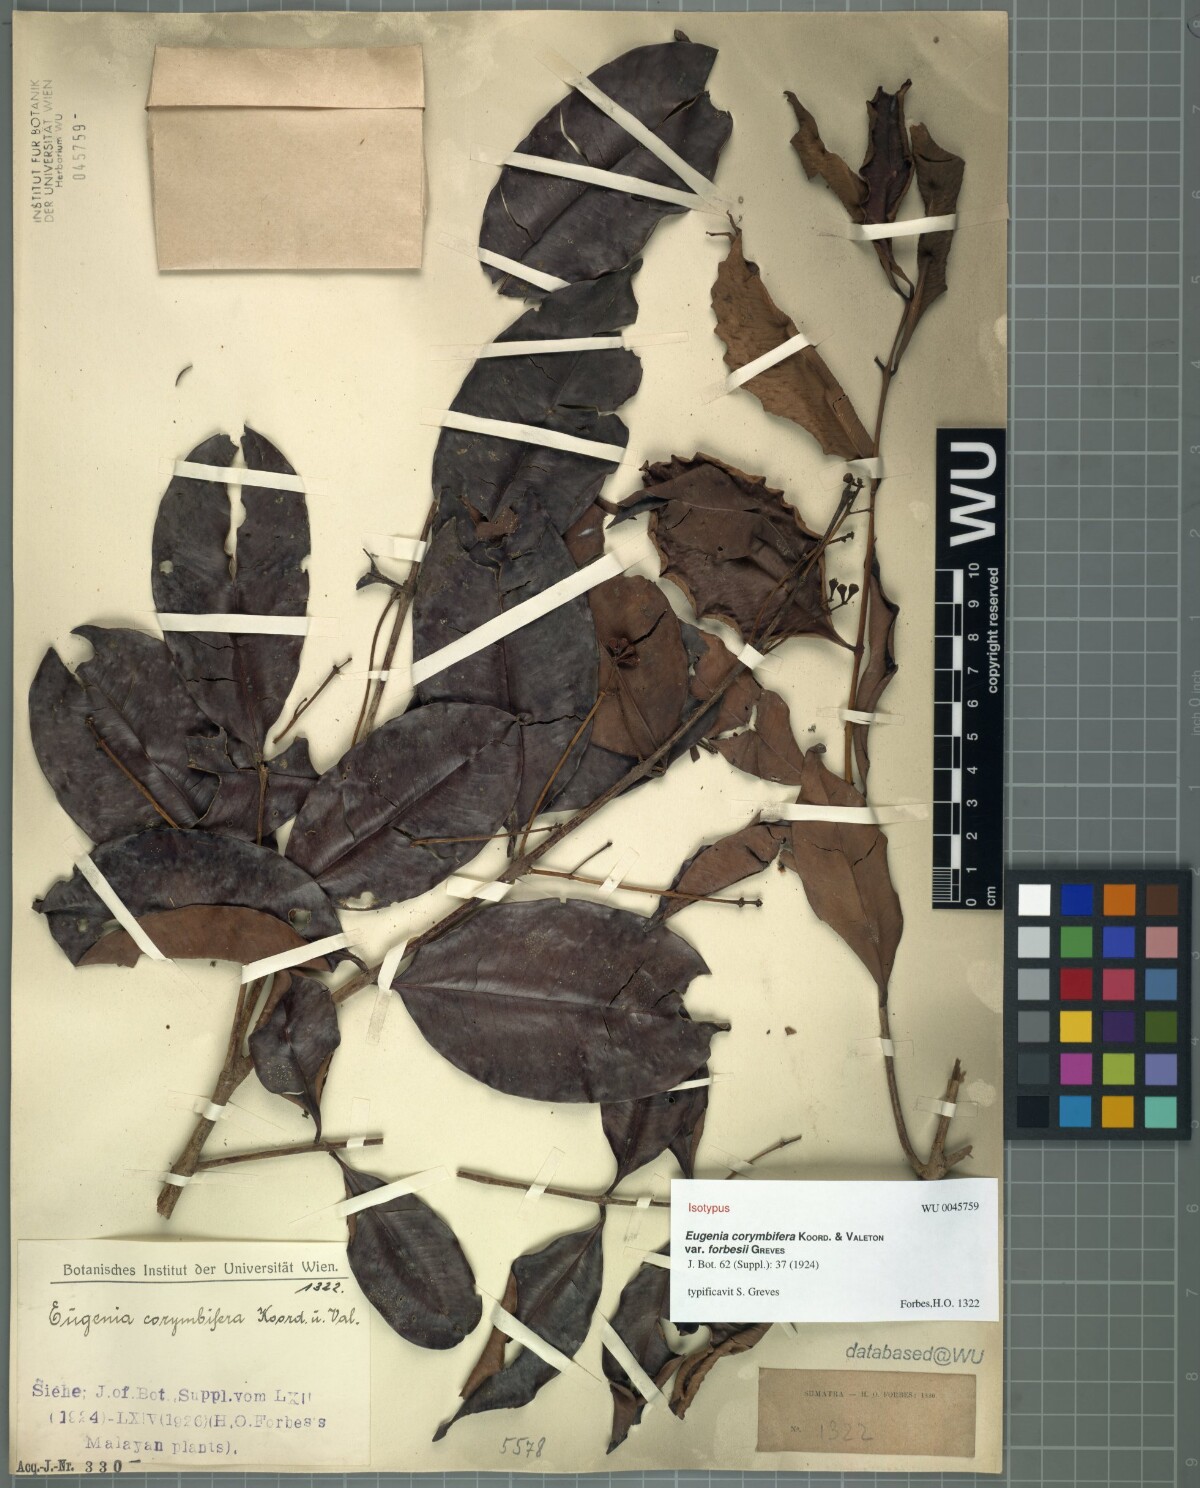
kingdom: Plantae
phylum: Tracheophyta
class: Magnoliopsida
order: Myrtales
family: Myrtaceae
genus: Syzygium
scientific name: Syzygium corymbosum
